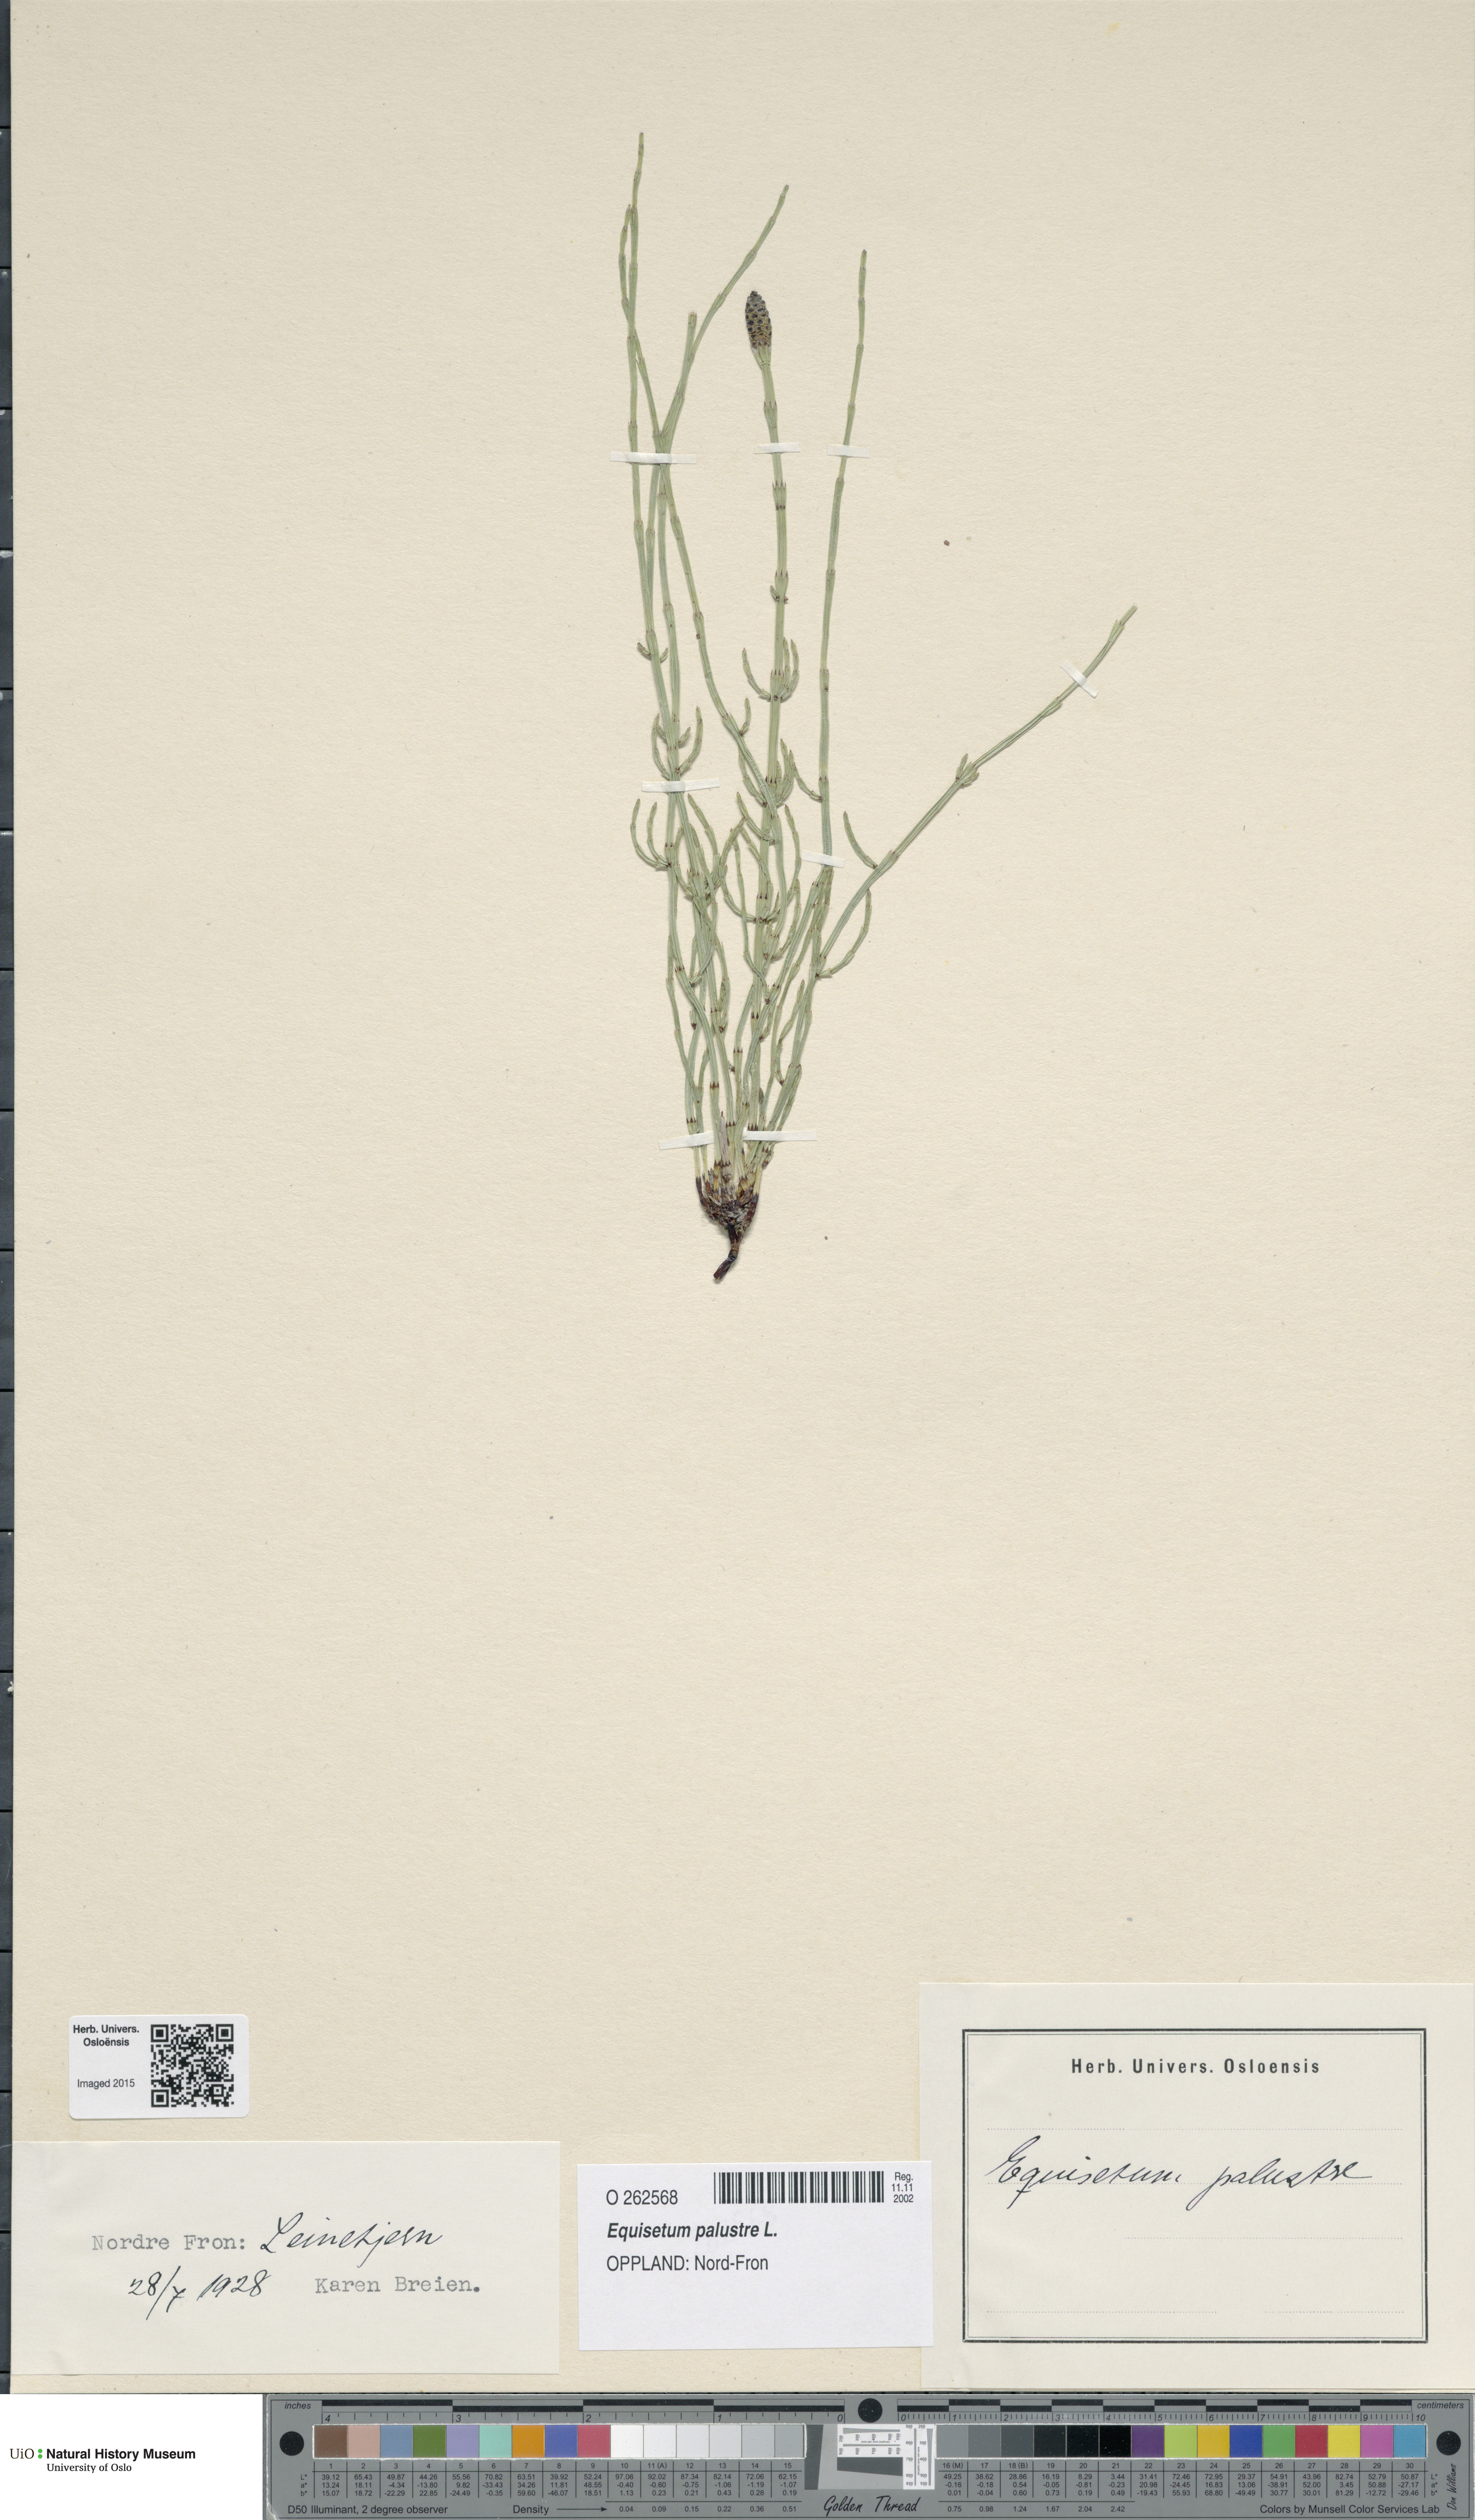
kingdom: Plantae
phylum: Tracheophyta
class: Polypodiopsida
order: Equisetales
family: Equisetaceae
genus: Equisetum
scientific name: Equisetum palustre
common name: Marsh horsetail
